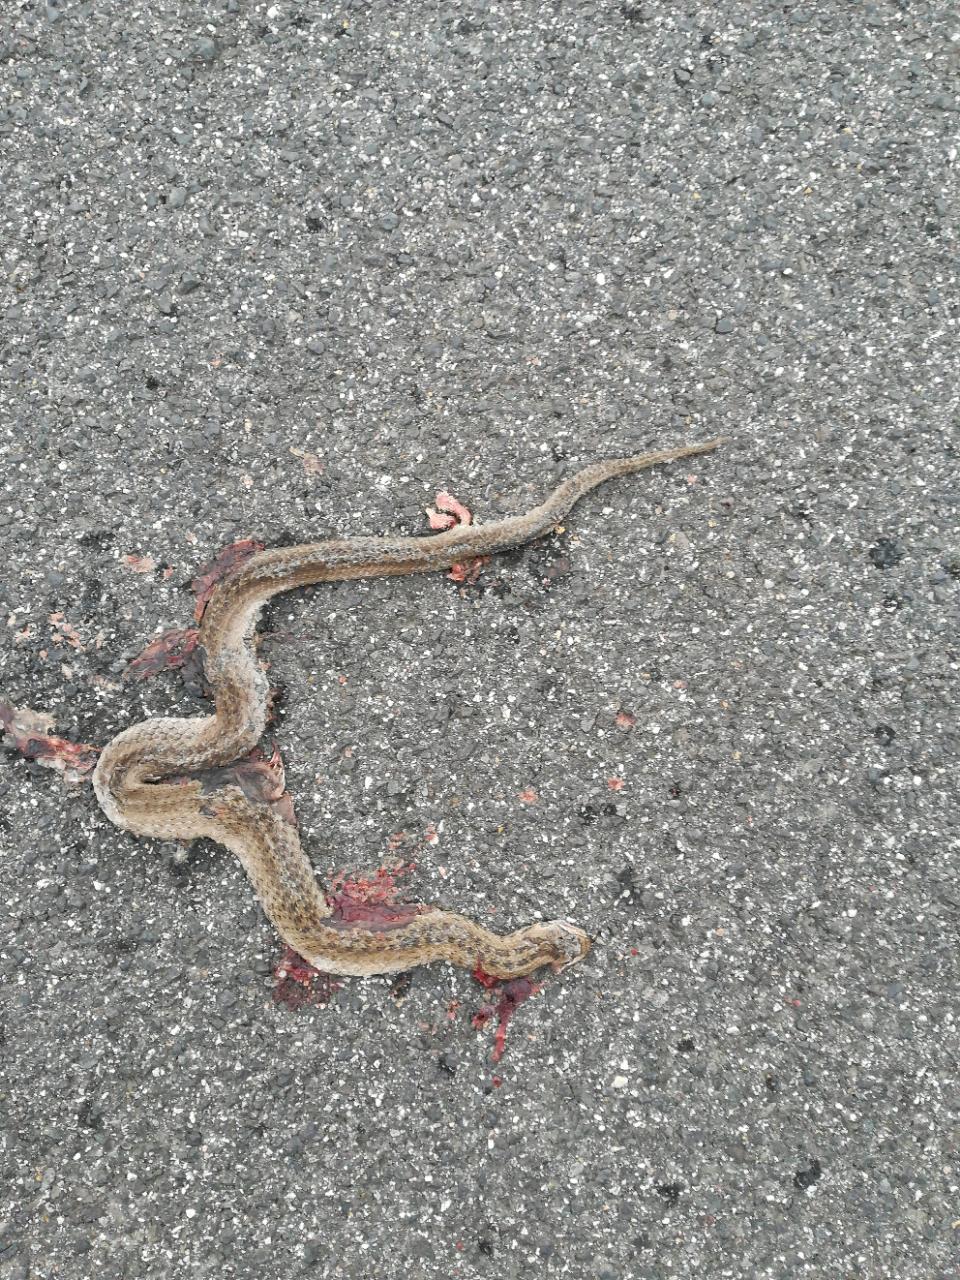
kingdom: Animalia
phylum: Chordata
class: Squamata
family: Colubridae
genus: Coronella
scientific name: Coronella austriaca
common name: Smooth snake
